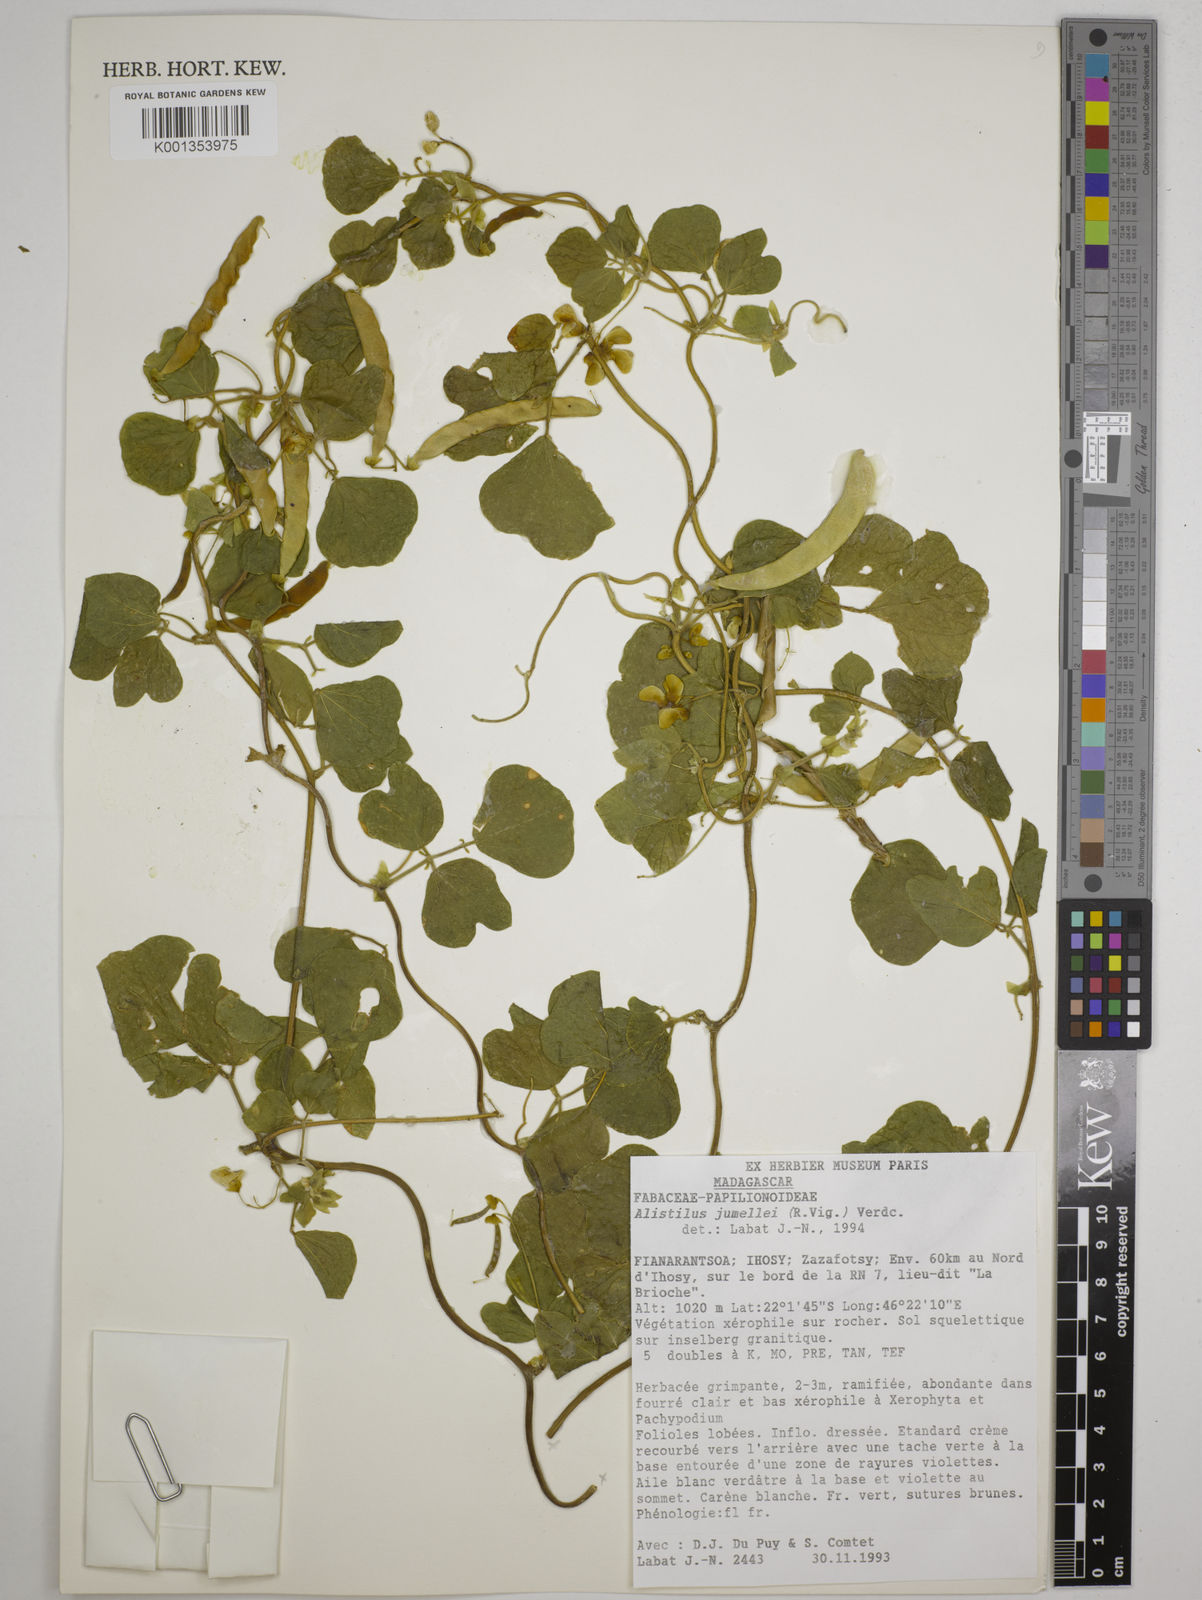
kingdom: Plantae
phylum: Tracheophyta
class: Magnoliopsida
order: Fabales
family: Fabaceae
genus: Alistilus
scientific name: Alistilus jumellei
